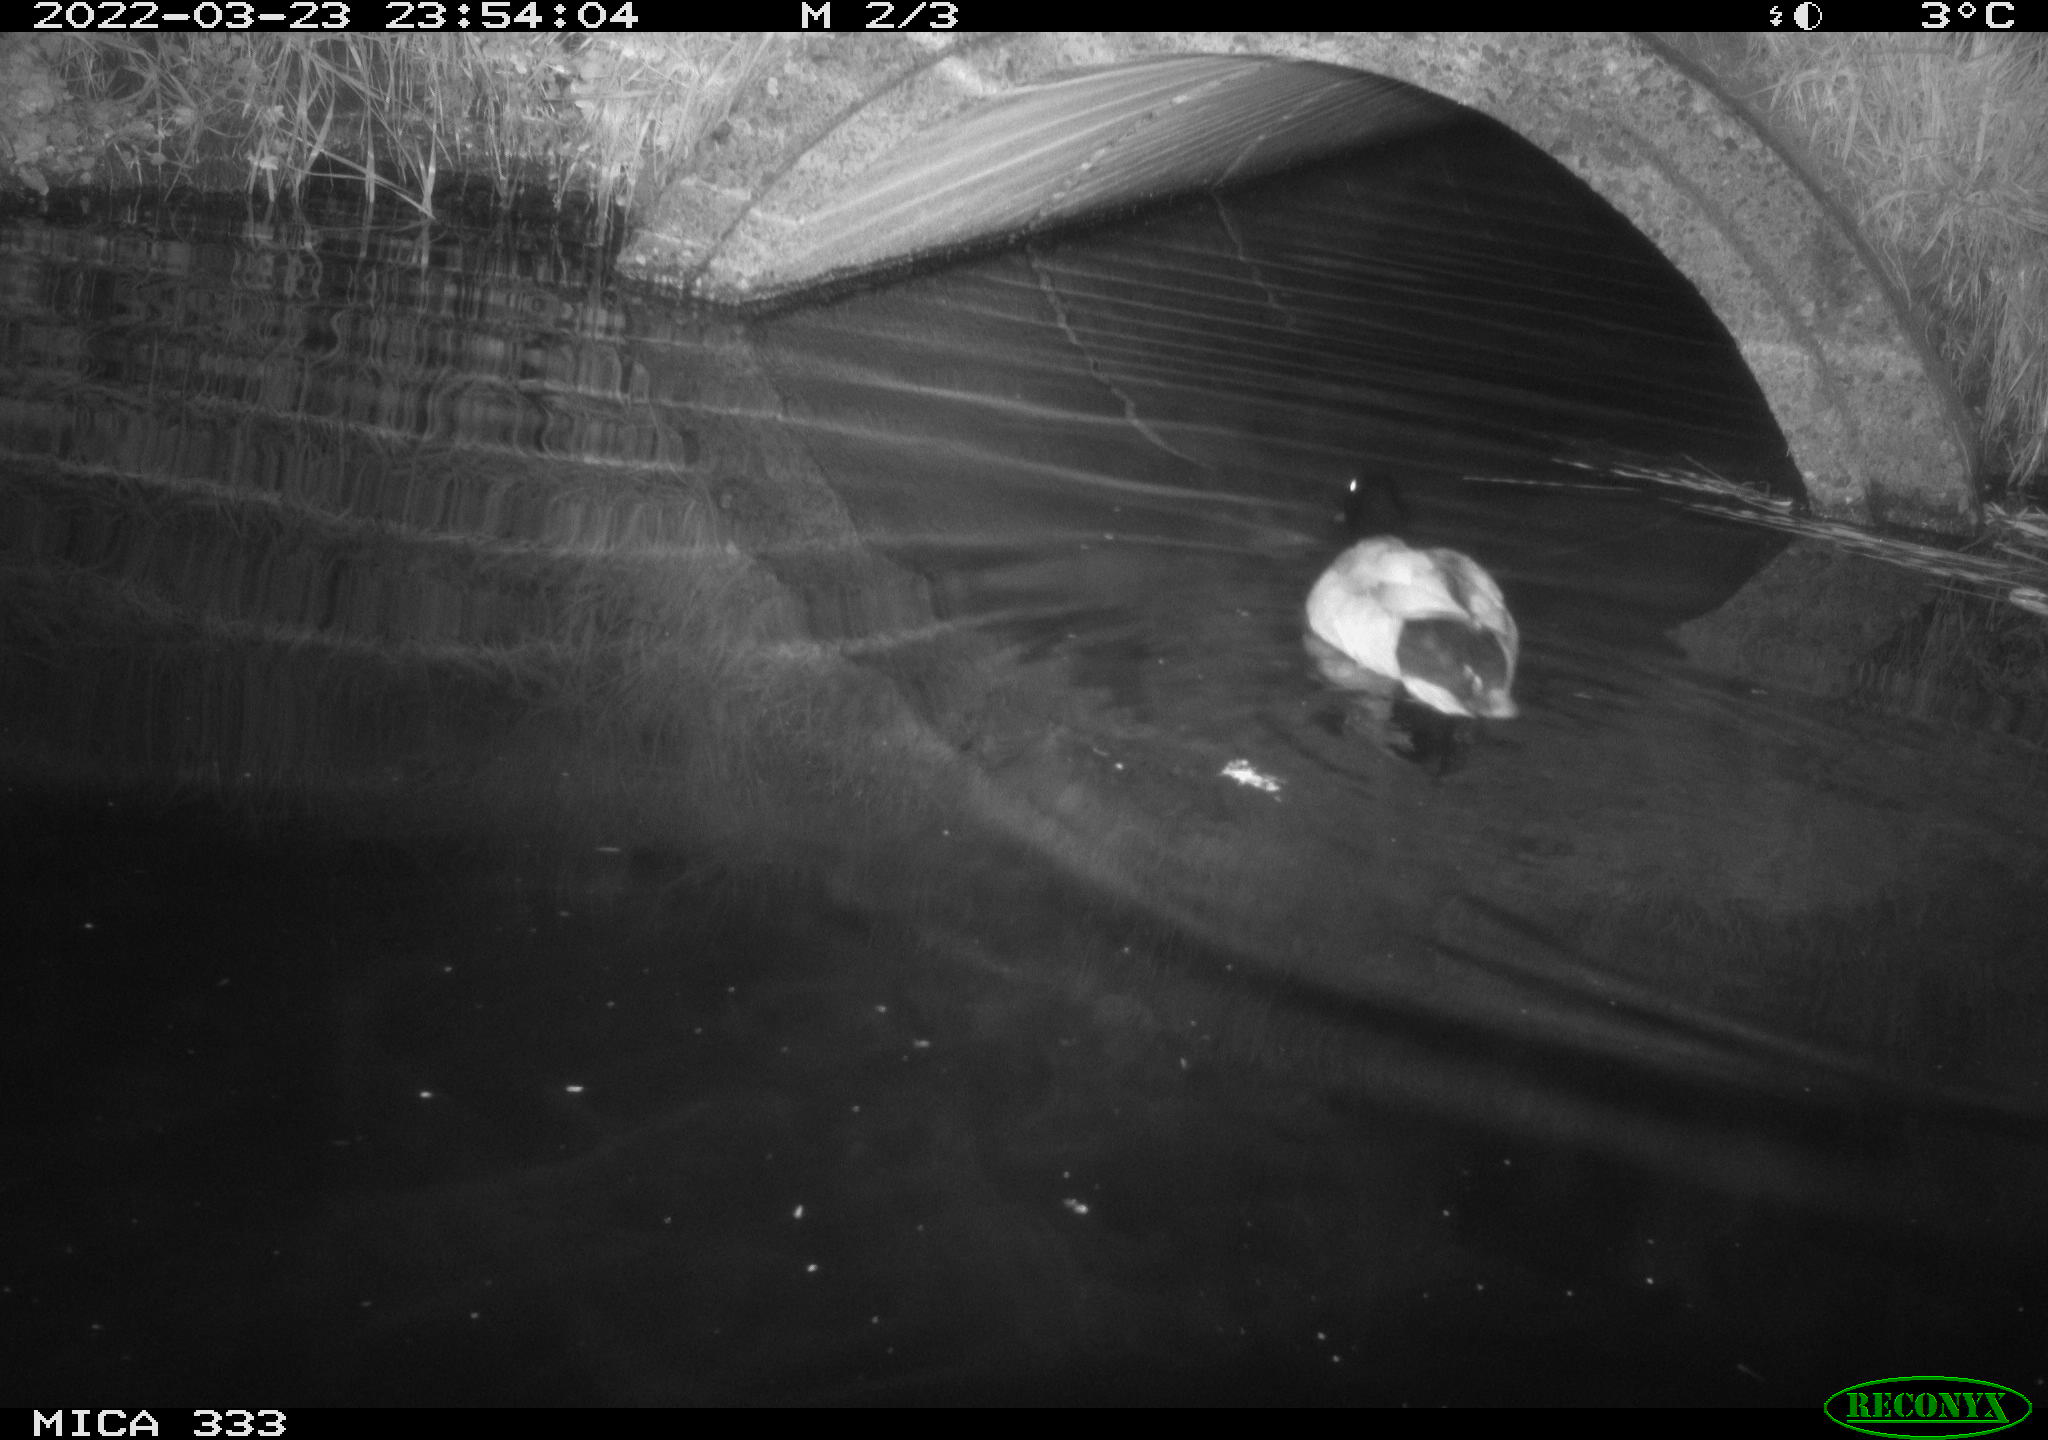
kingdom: Animalia
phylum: Chordata
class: Aves
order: Anseriformes
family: Anatidae
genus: Anas
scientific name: Anas platyrhynchos
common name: Mallard
